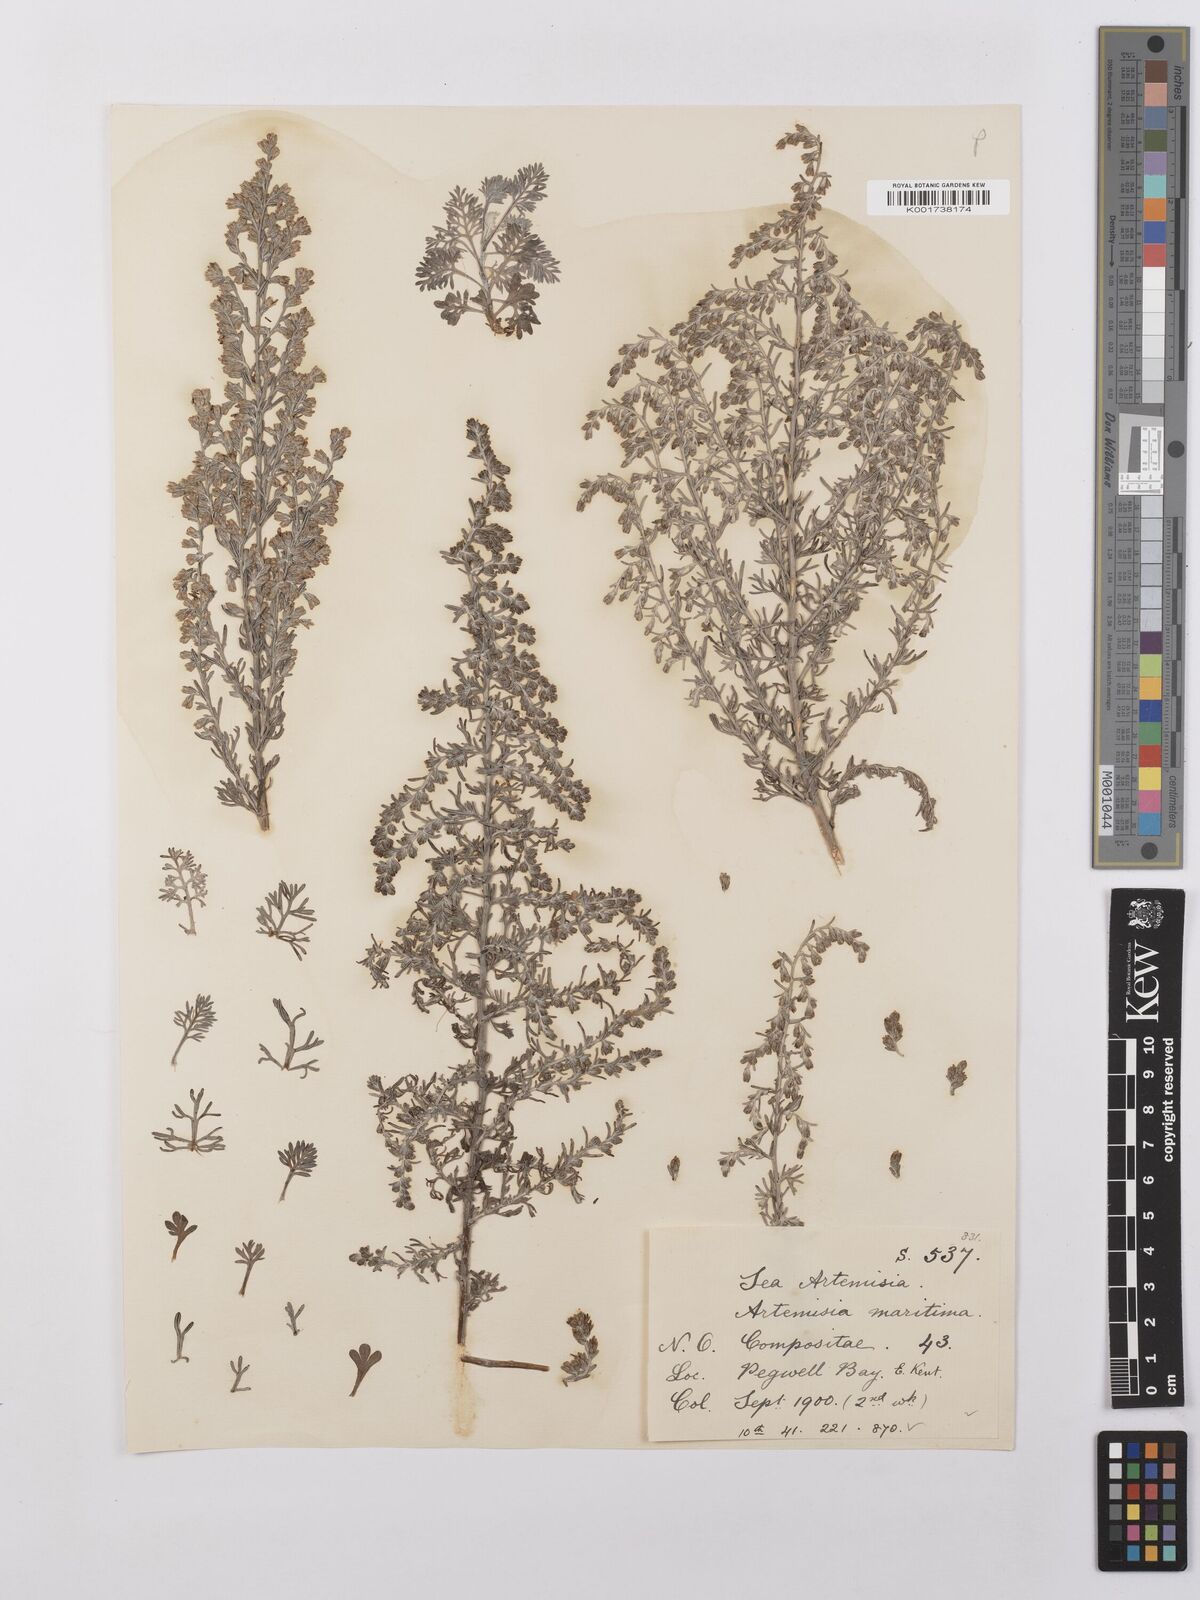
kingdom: Plantae
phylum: Tracheophyta
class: Magnoliopsida
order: Asterales
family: Asteraceae
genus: Artemisia
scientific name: Artemisia maritima
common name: Wormseed
